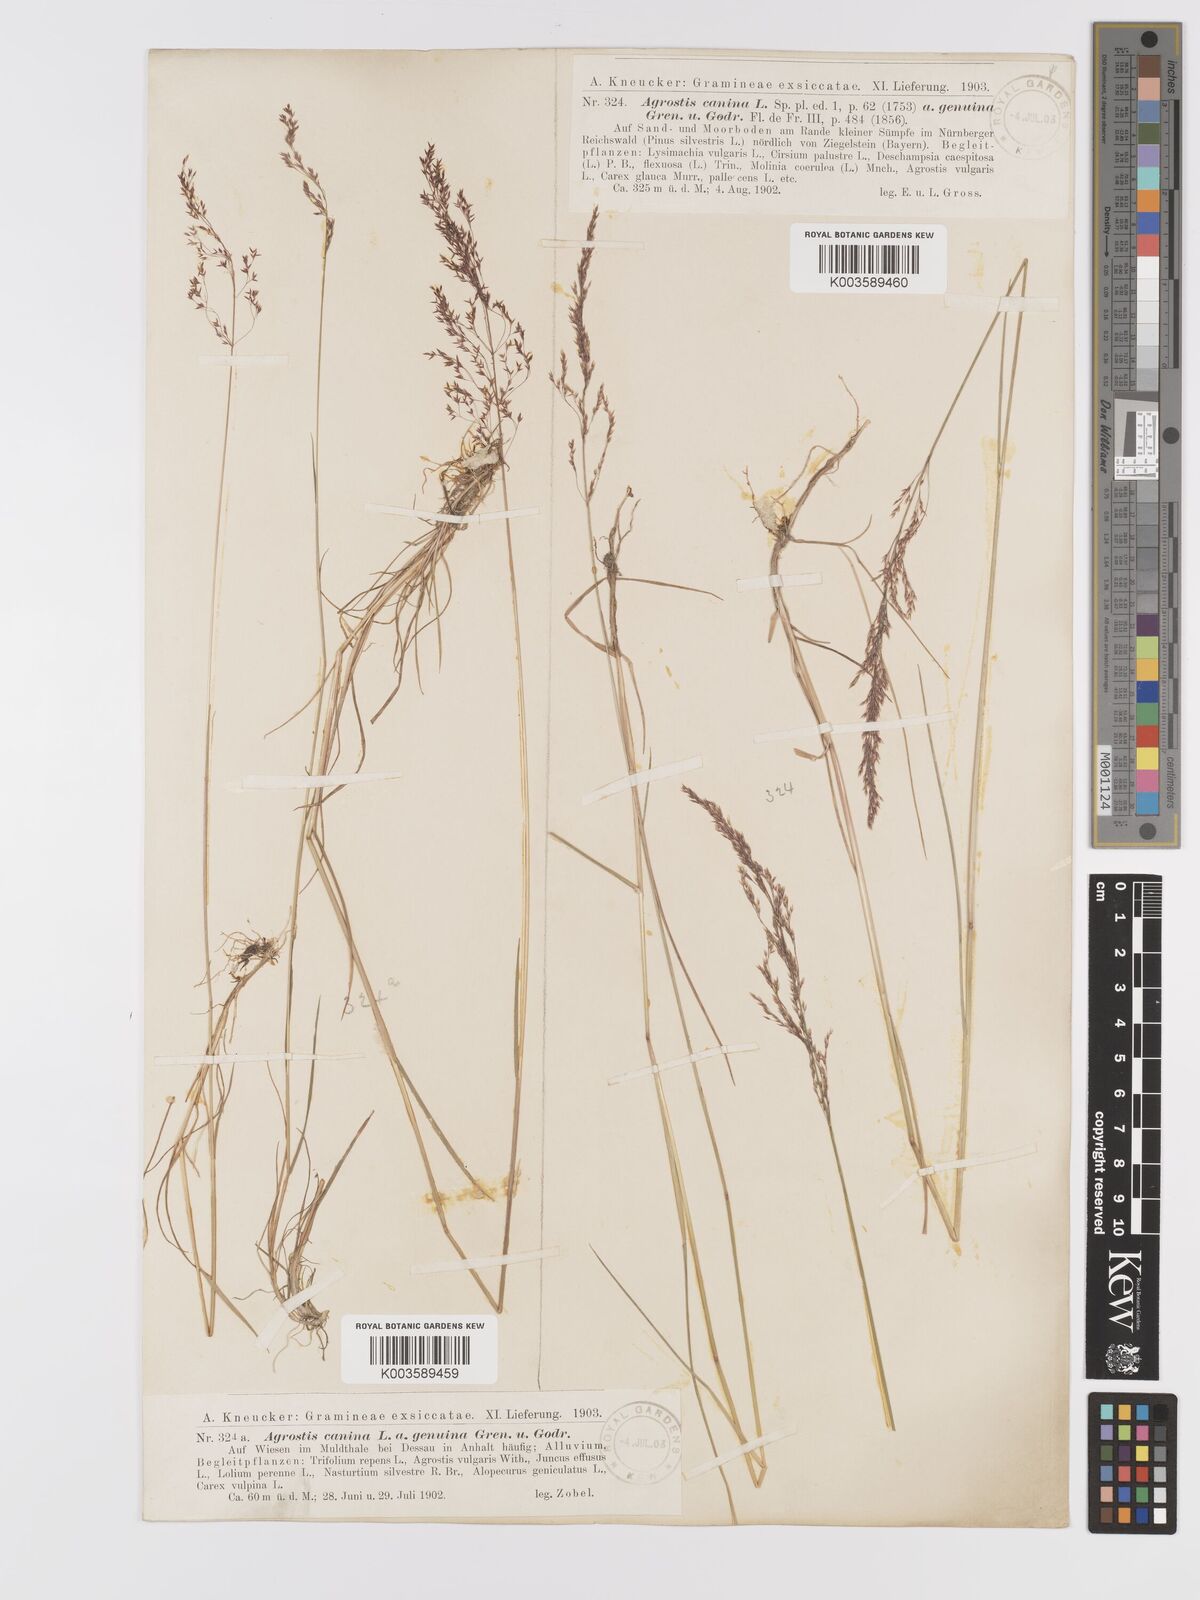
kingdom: Plantae
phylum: Tracheophyta
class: Liliopsida
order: Poales
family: Poaceae
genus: Agrostis
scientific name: Agrostis canina
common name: Velvet bent
